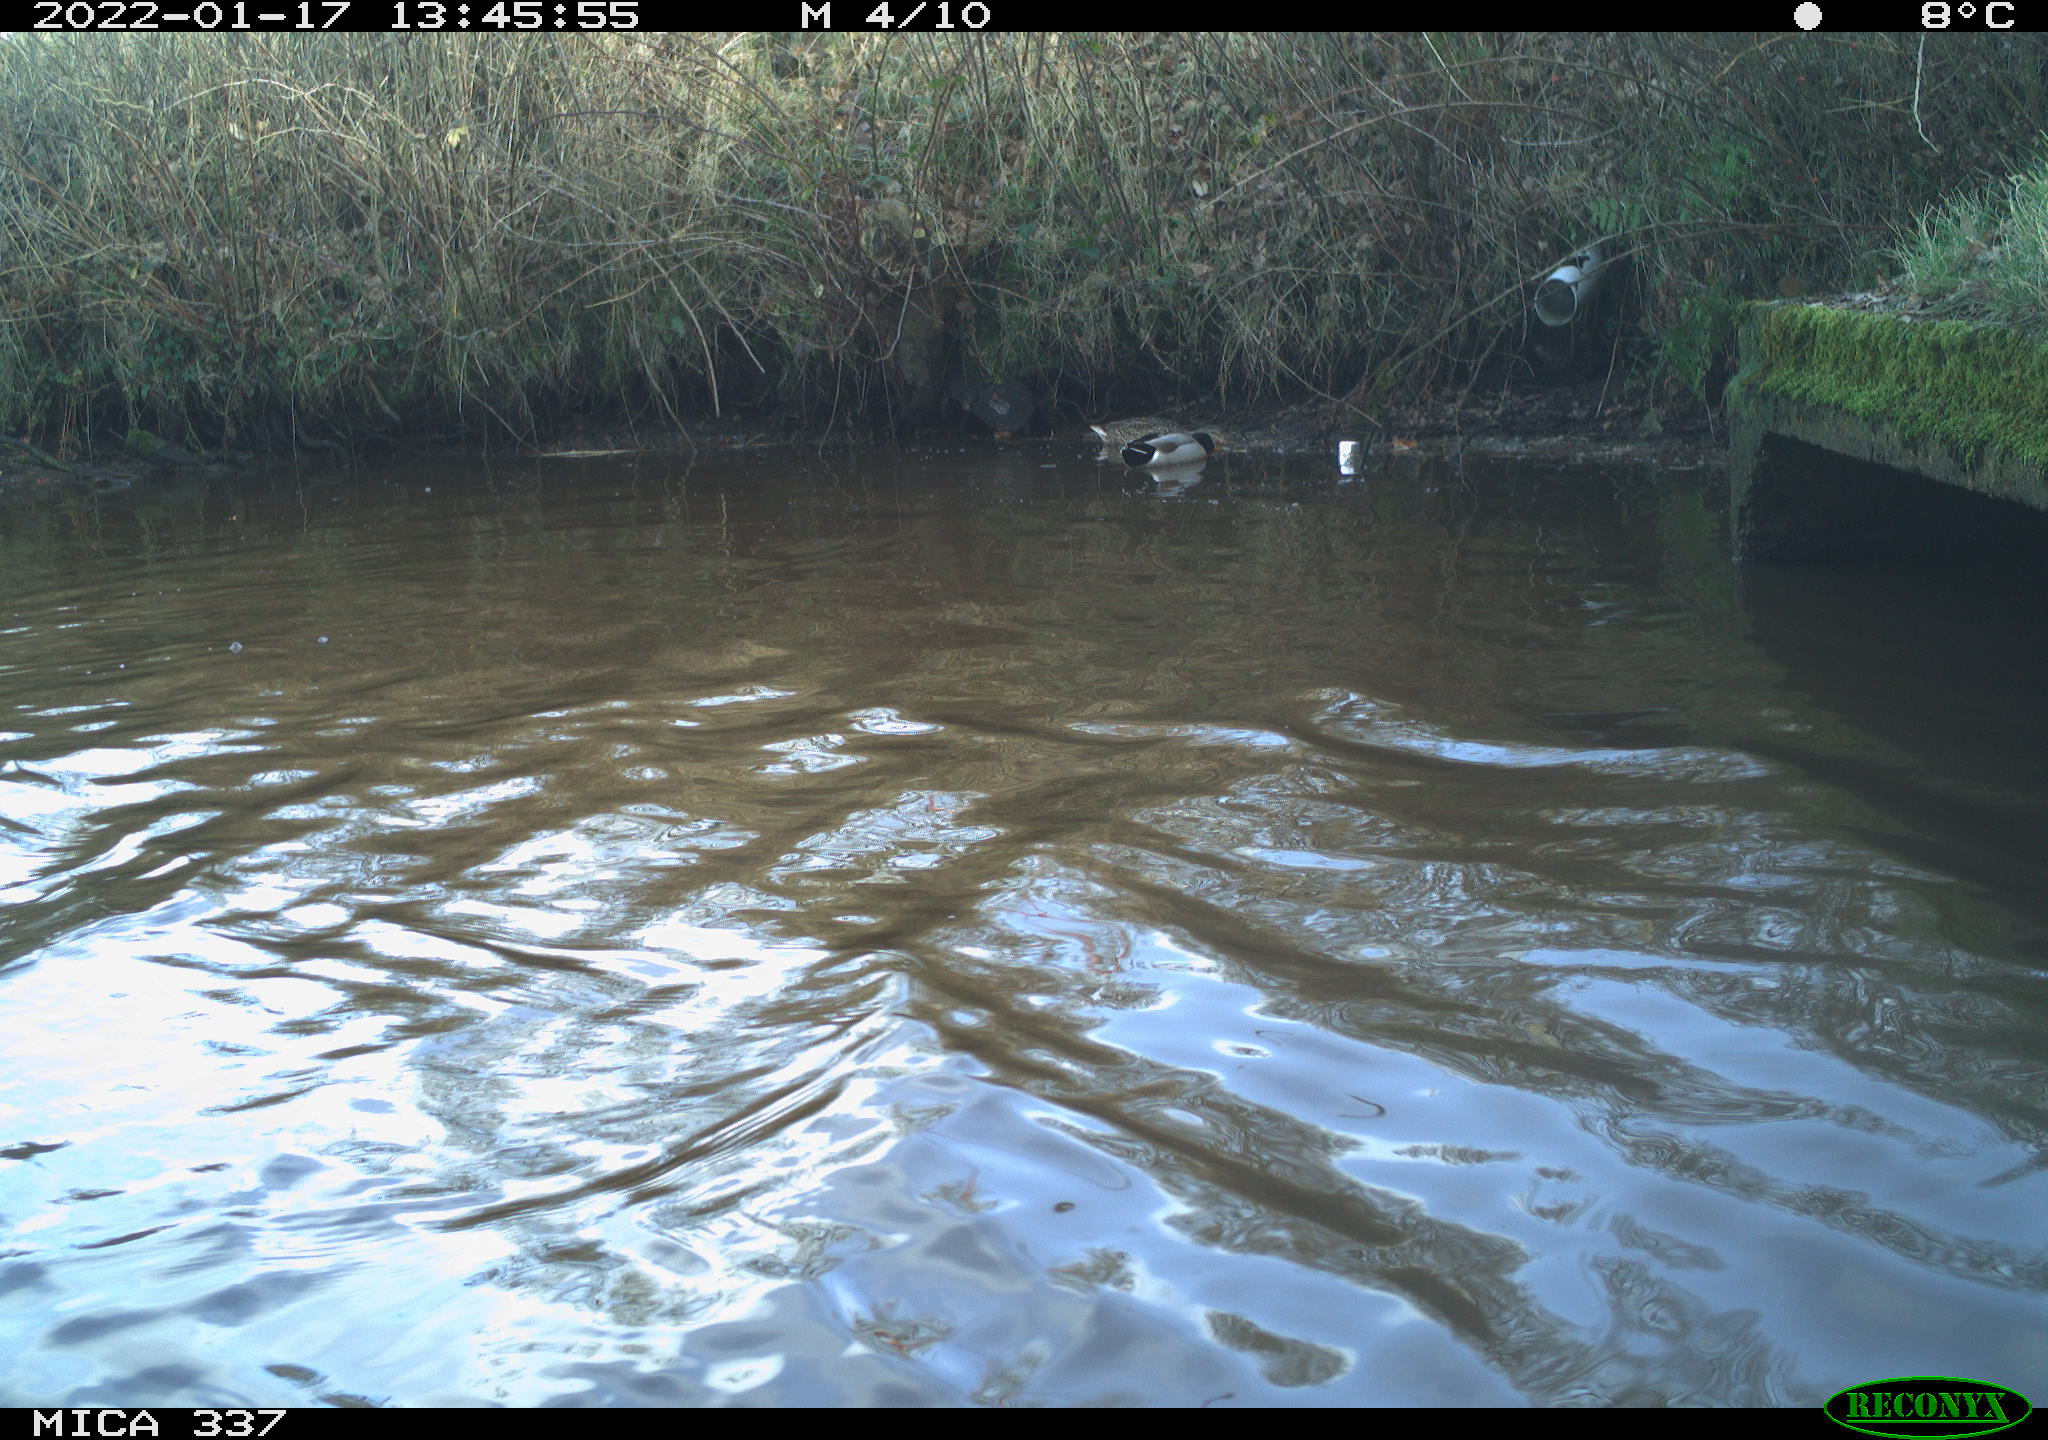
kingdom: Animalia
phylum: Chordata
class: Aves
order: Anseriformes
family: Anatidae
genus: Anas
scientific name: Anas platyrhynchos
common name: Mallard
